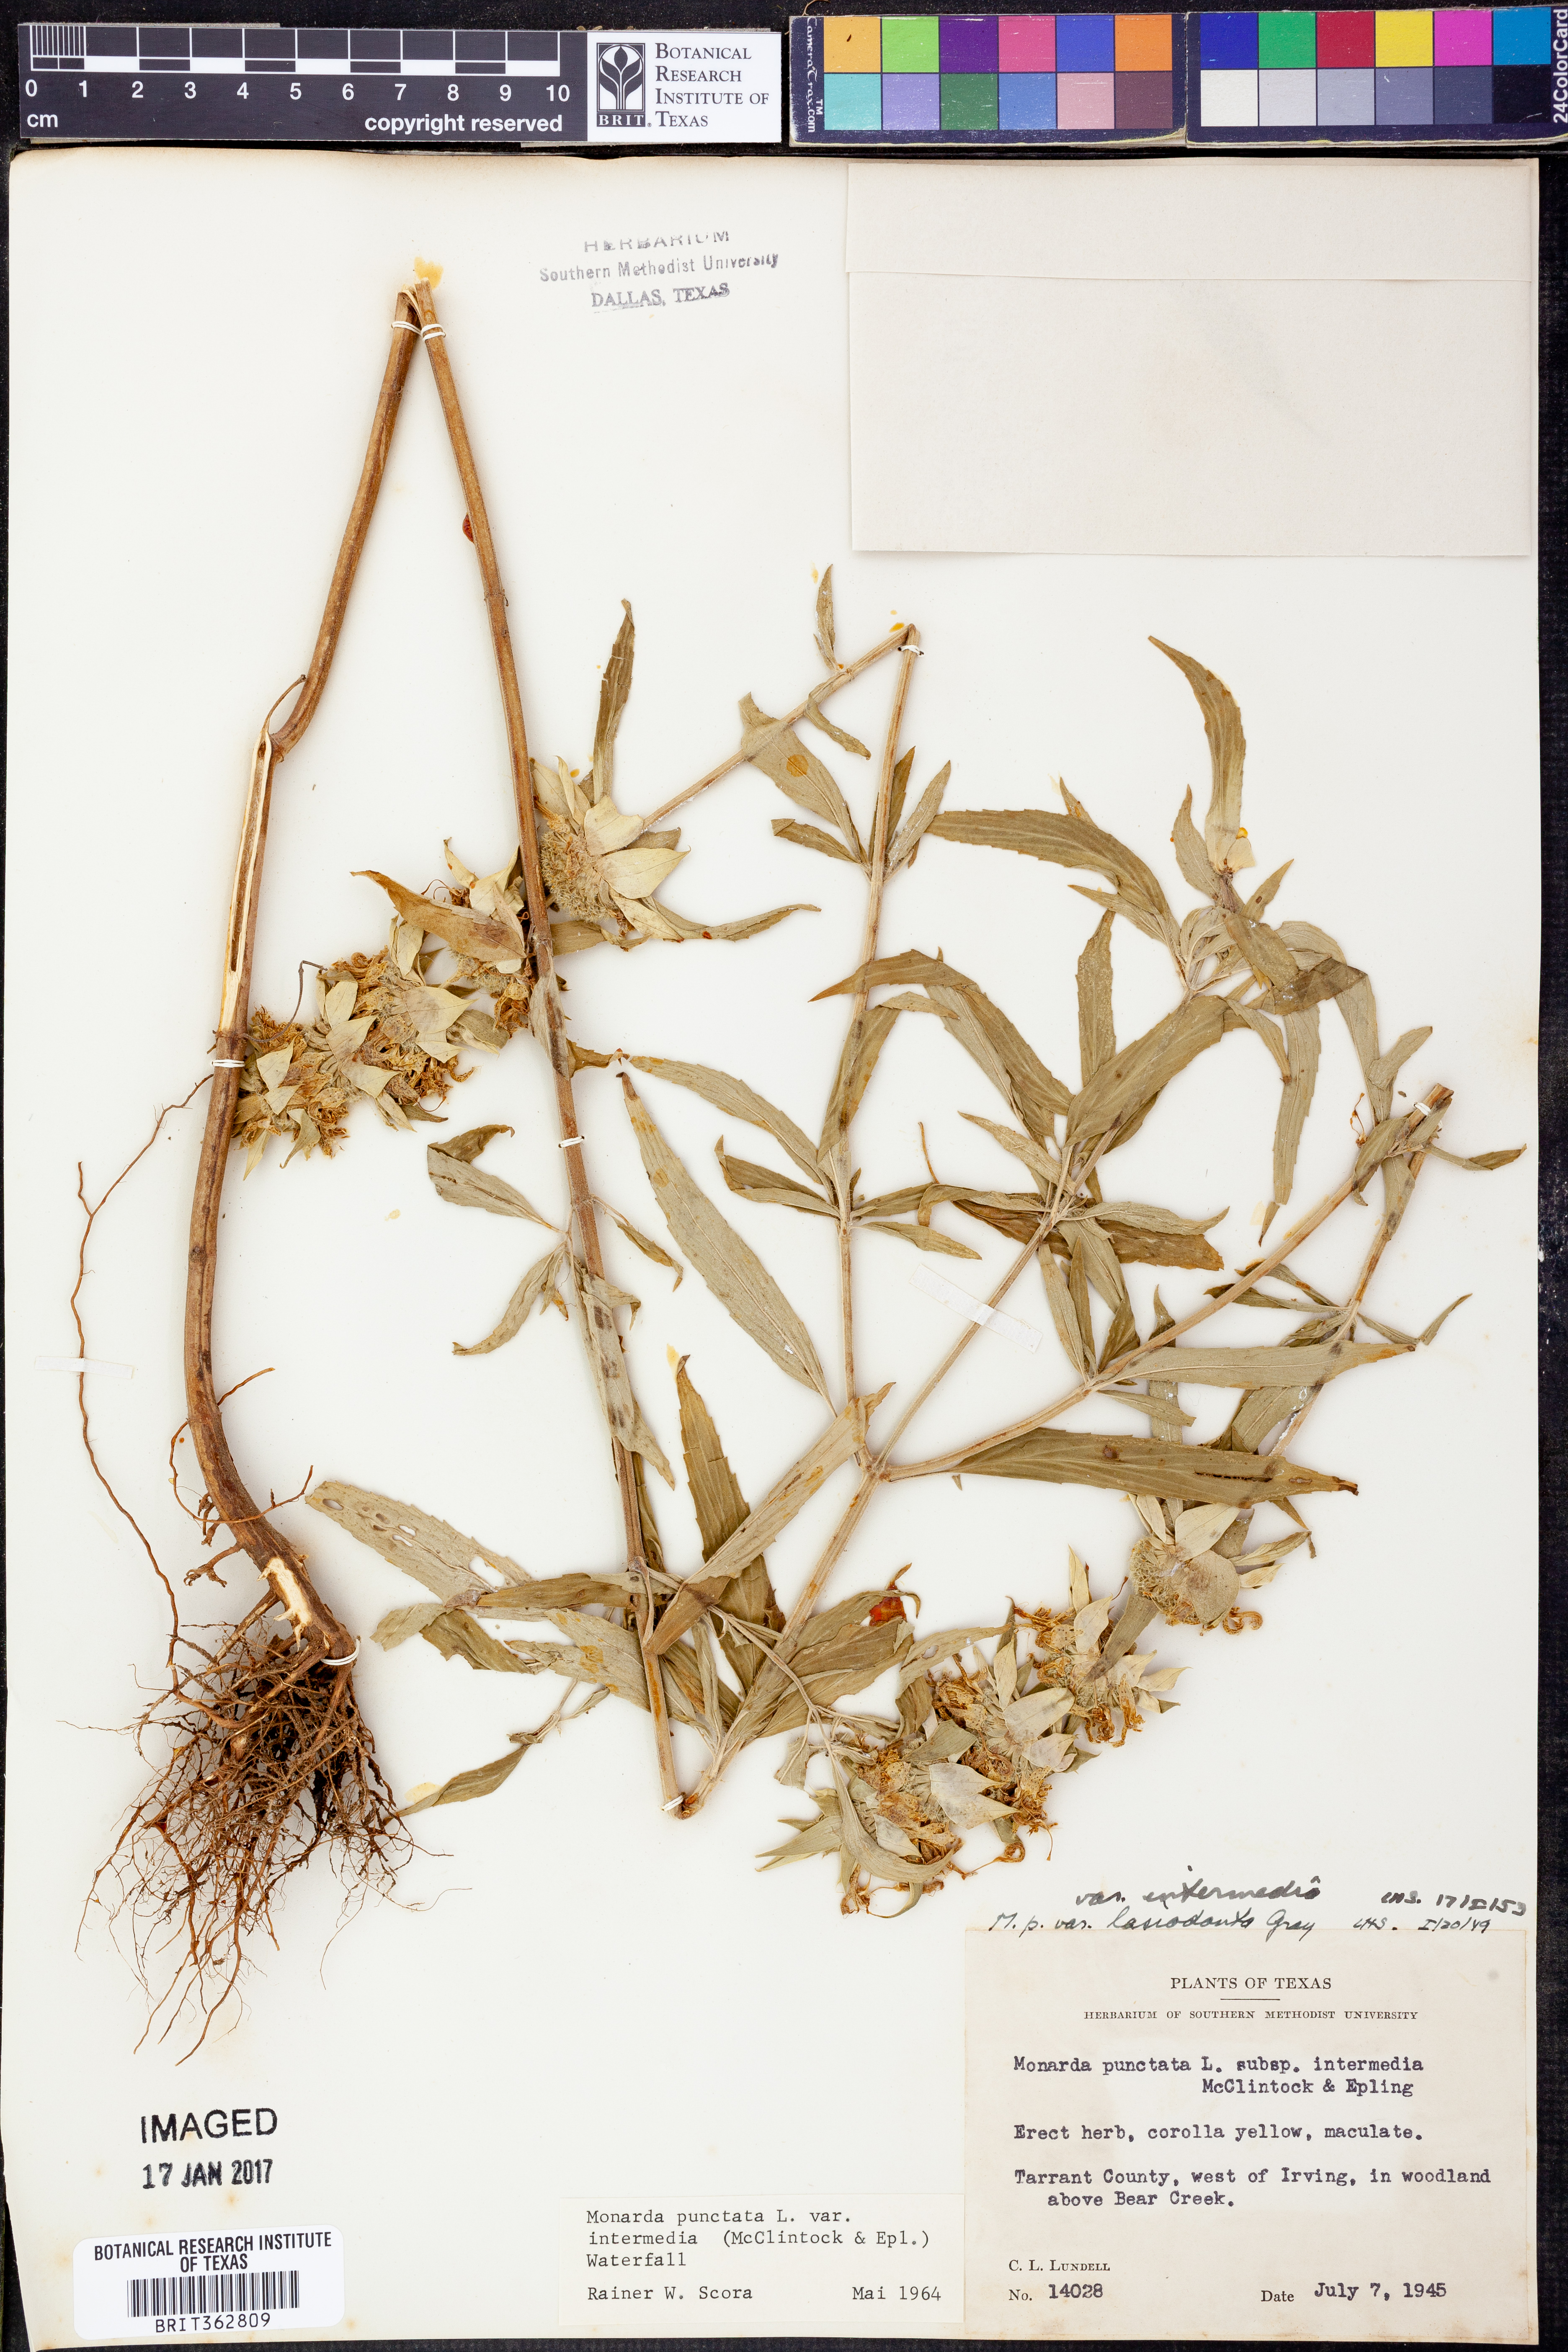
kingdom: Plantae
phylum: Tracheophyta
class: Magnoliopsida
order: Lamiales
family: Lamiaceae
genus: Monarda
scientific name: Monarda punctata
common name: Dotted monarda
